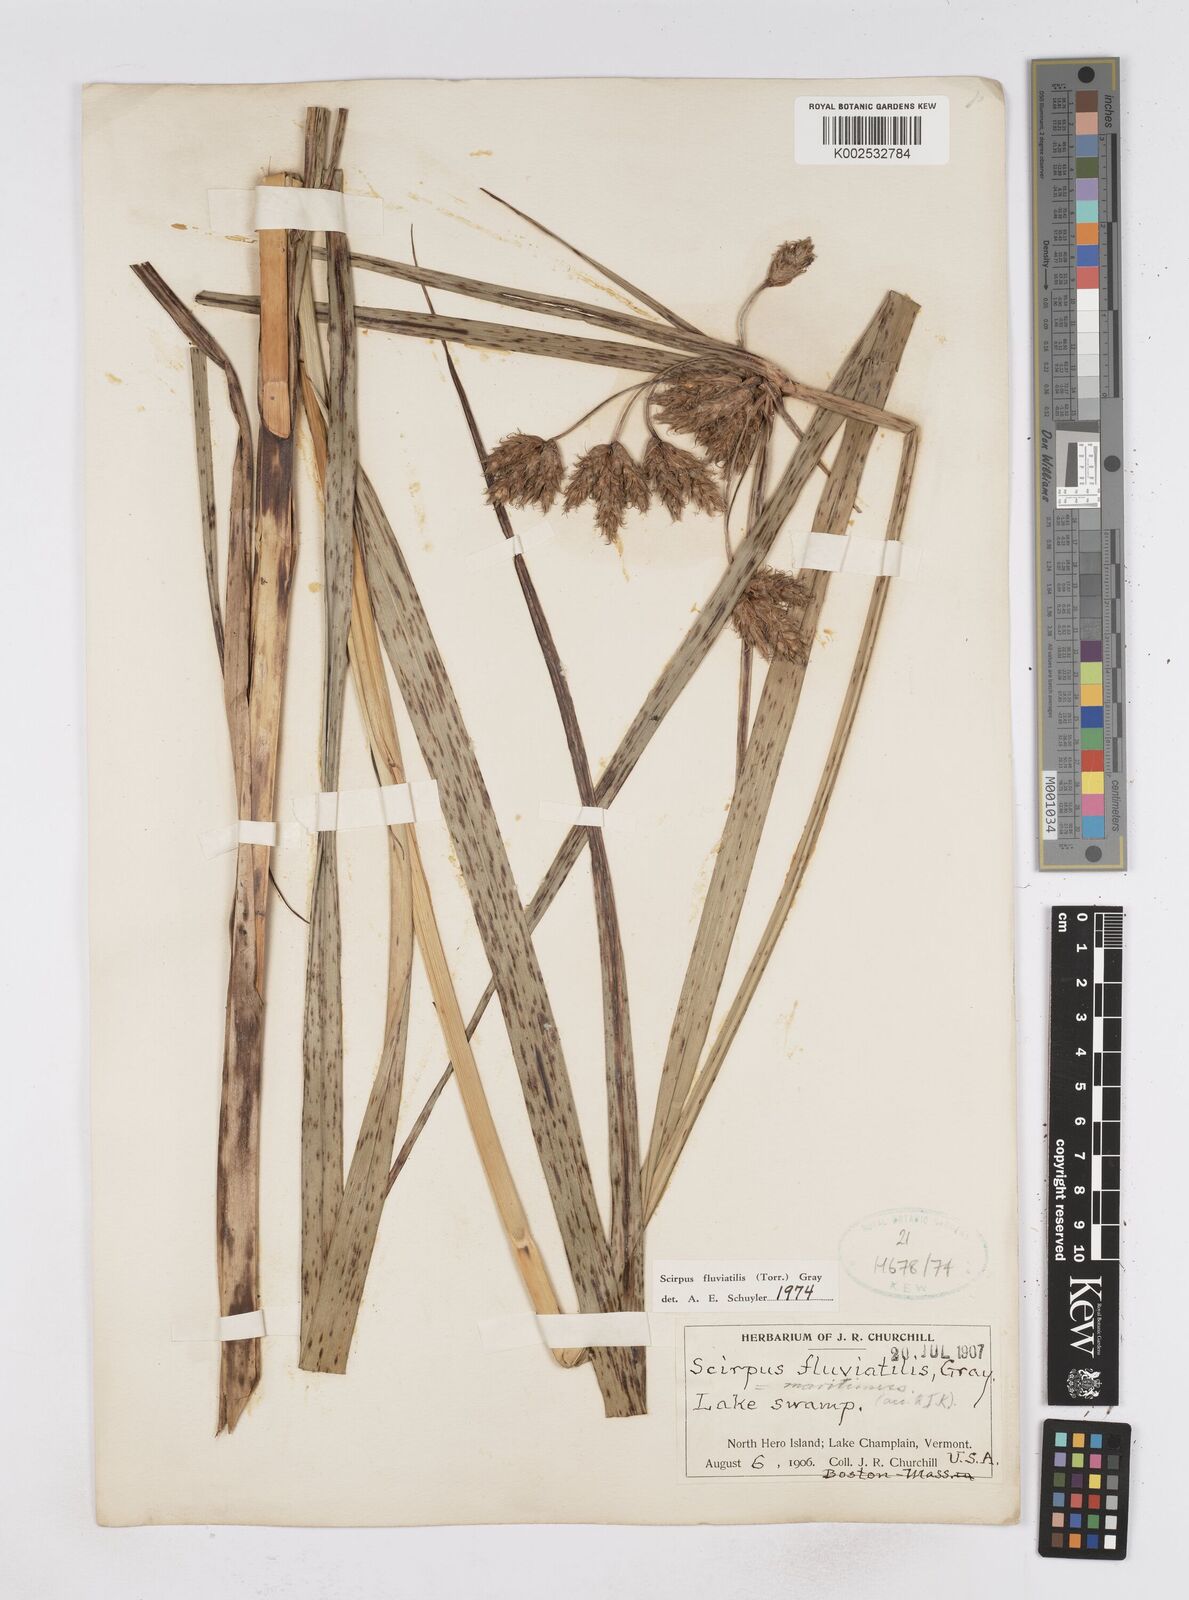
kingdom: Plantae
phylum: Tracheophyta
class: Liliopsida
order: Poales
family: Cyperaceae
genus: Bolboschoenus
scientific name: Bolboschoenus
